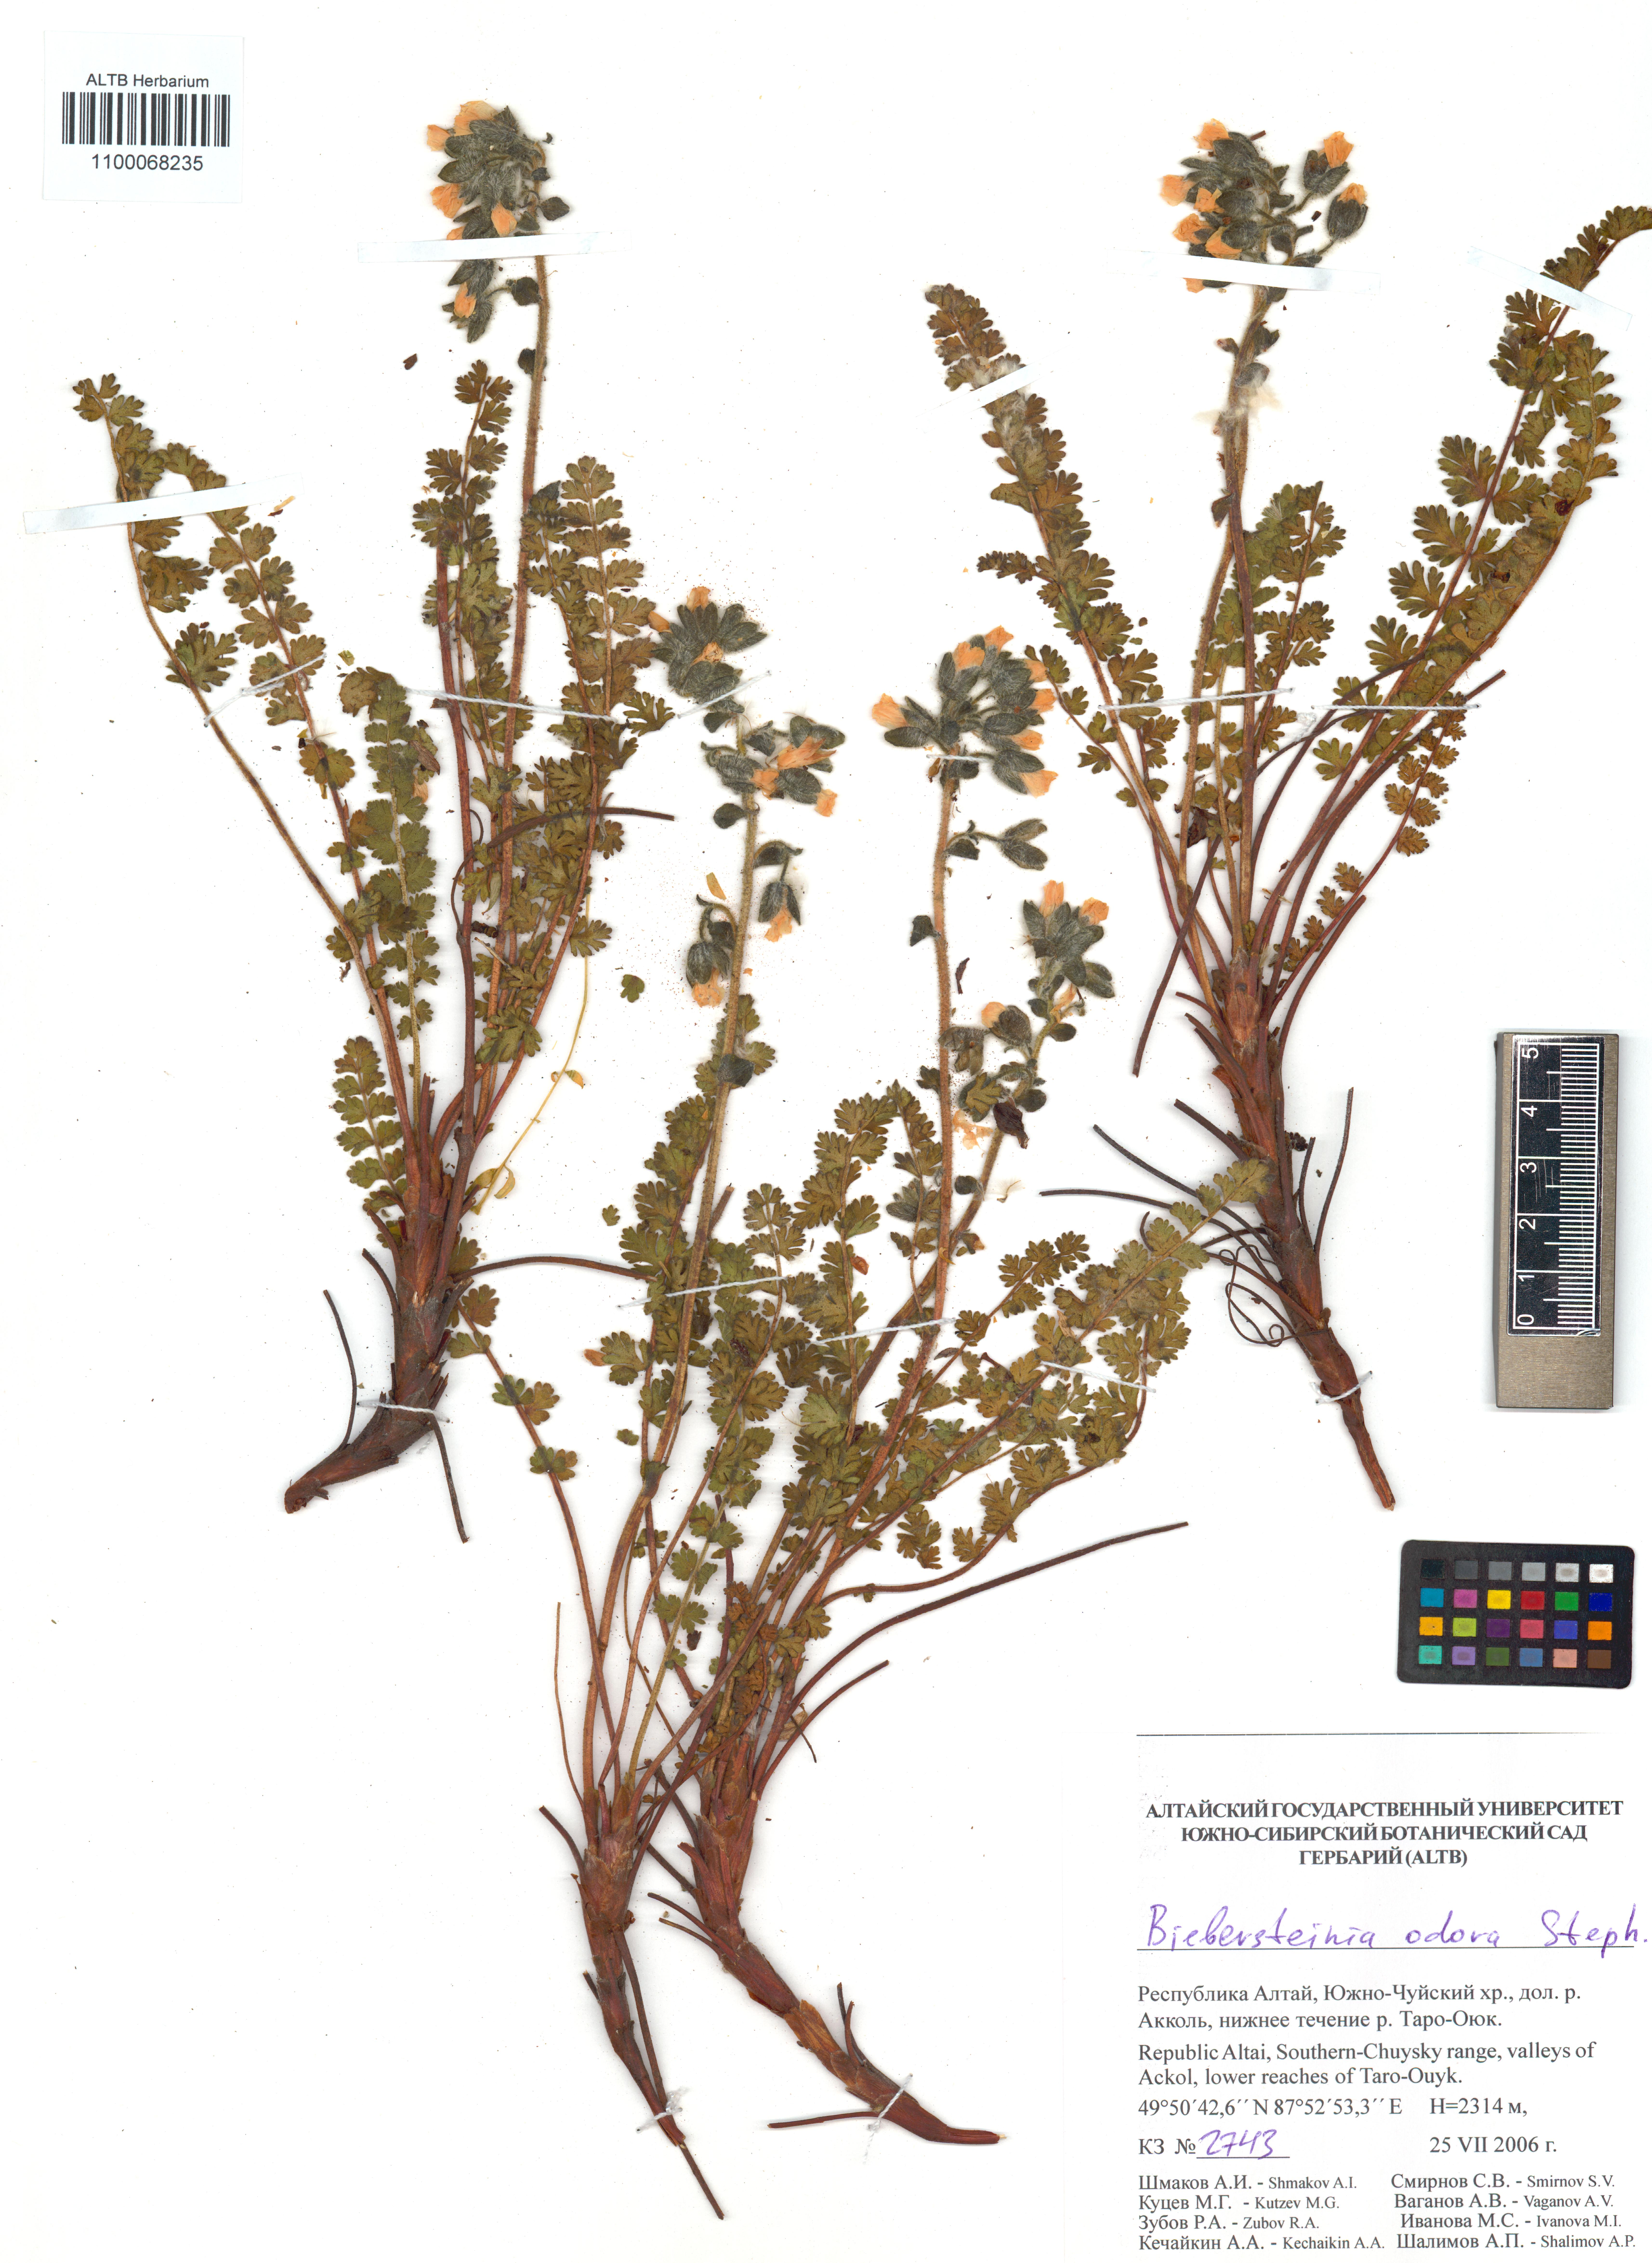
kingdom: Plantae
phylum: Tracheophyta
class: Magnoliopsida
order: Sapindales
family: Biebersteiniaceae
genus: Biebersteinia
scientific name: Biebersteinia odora
